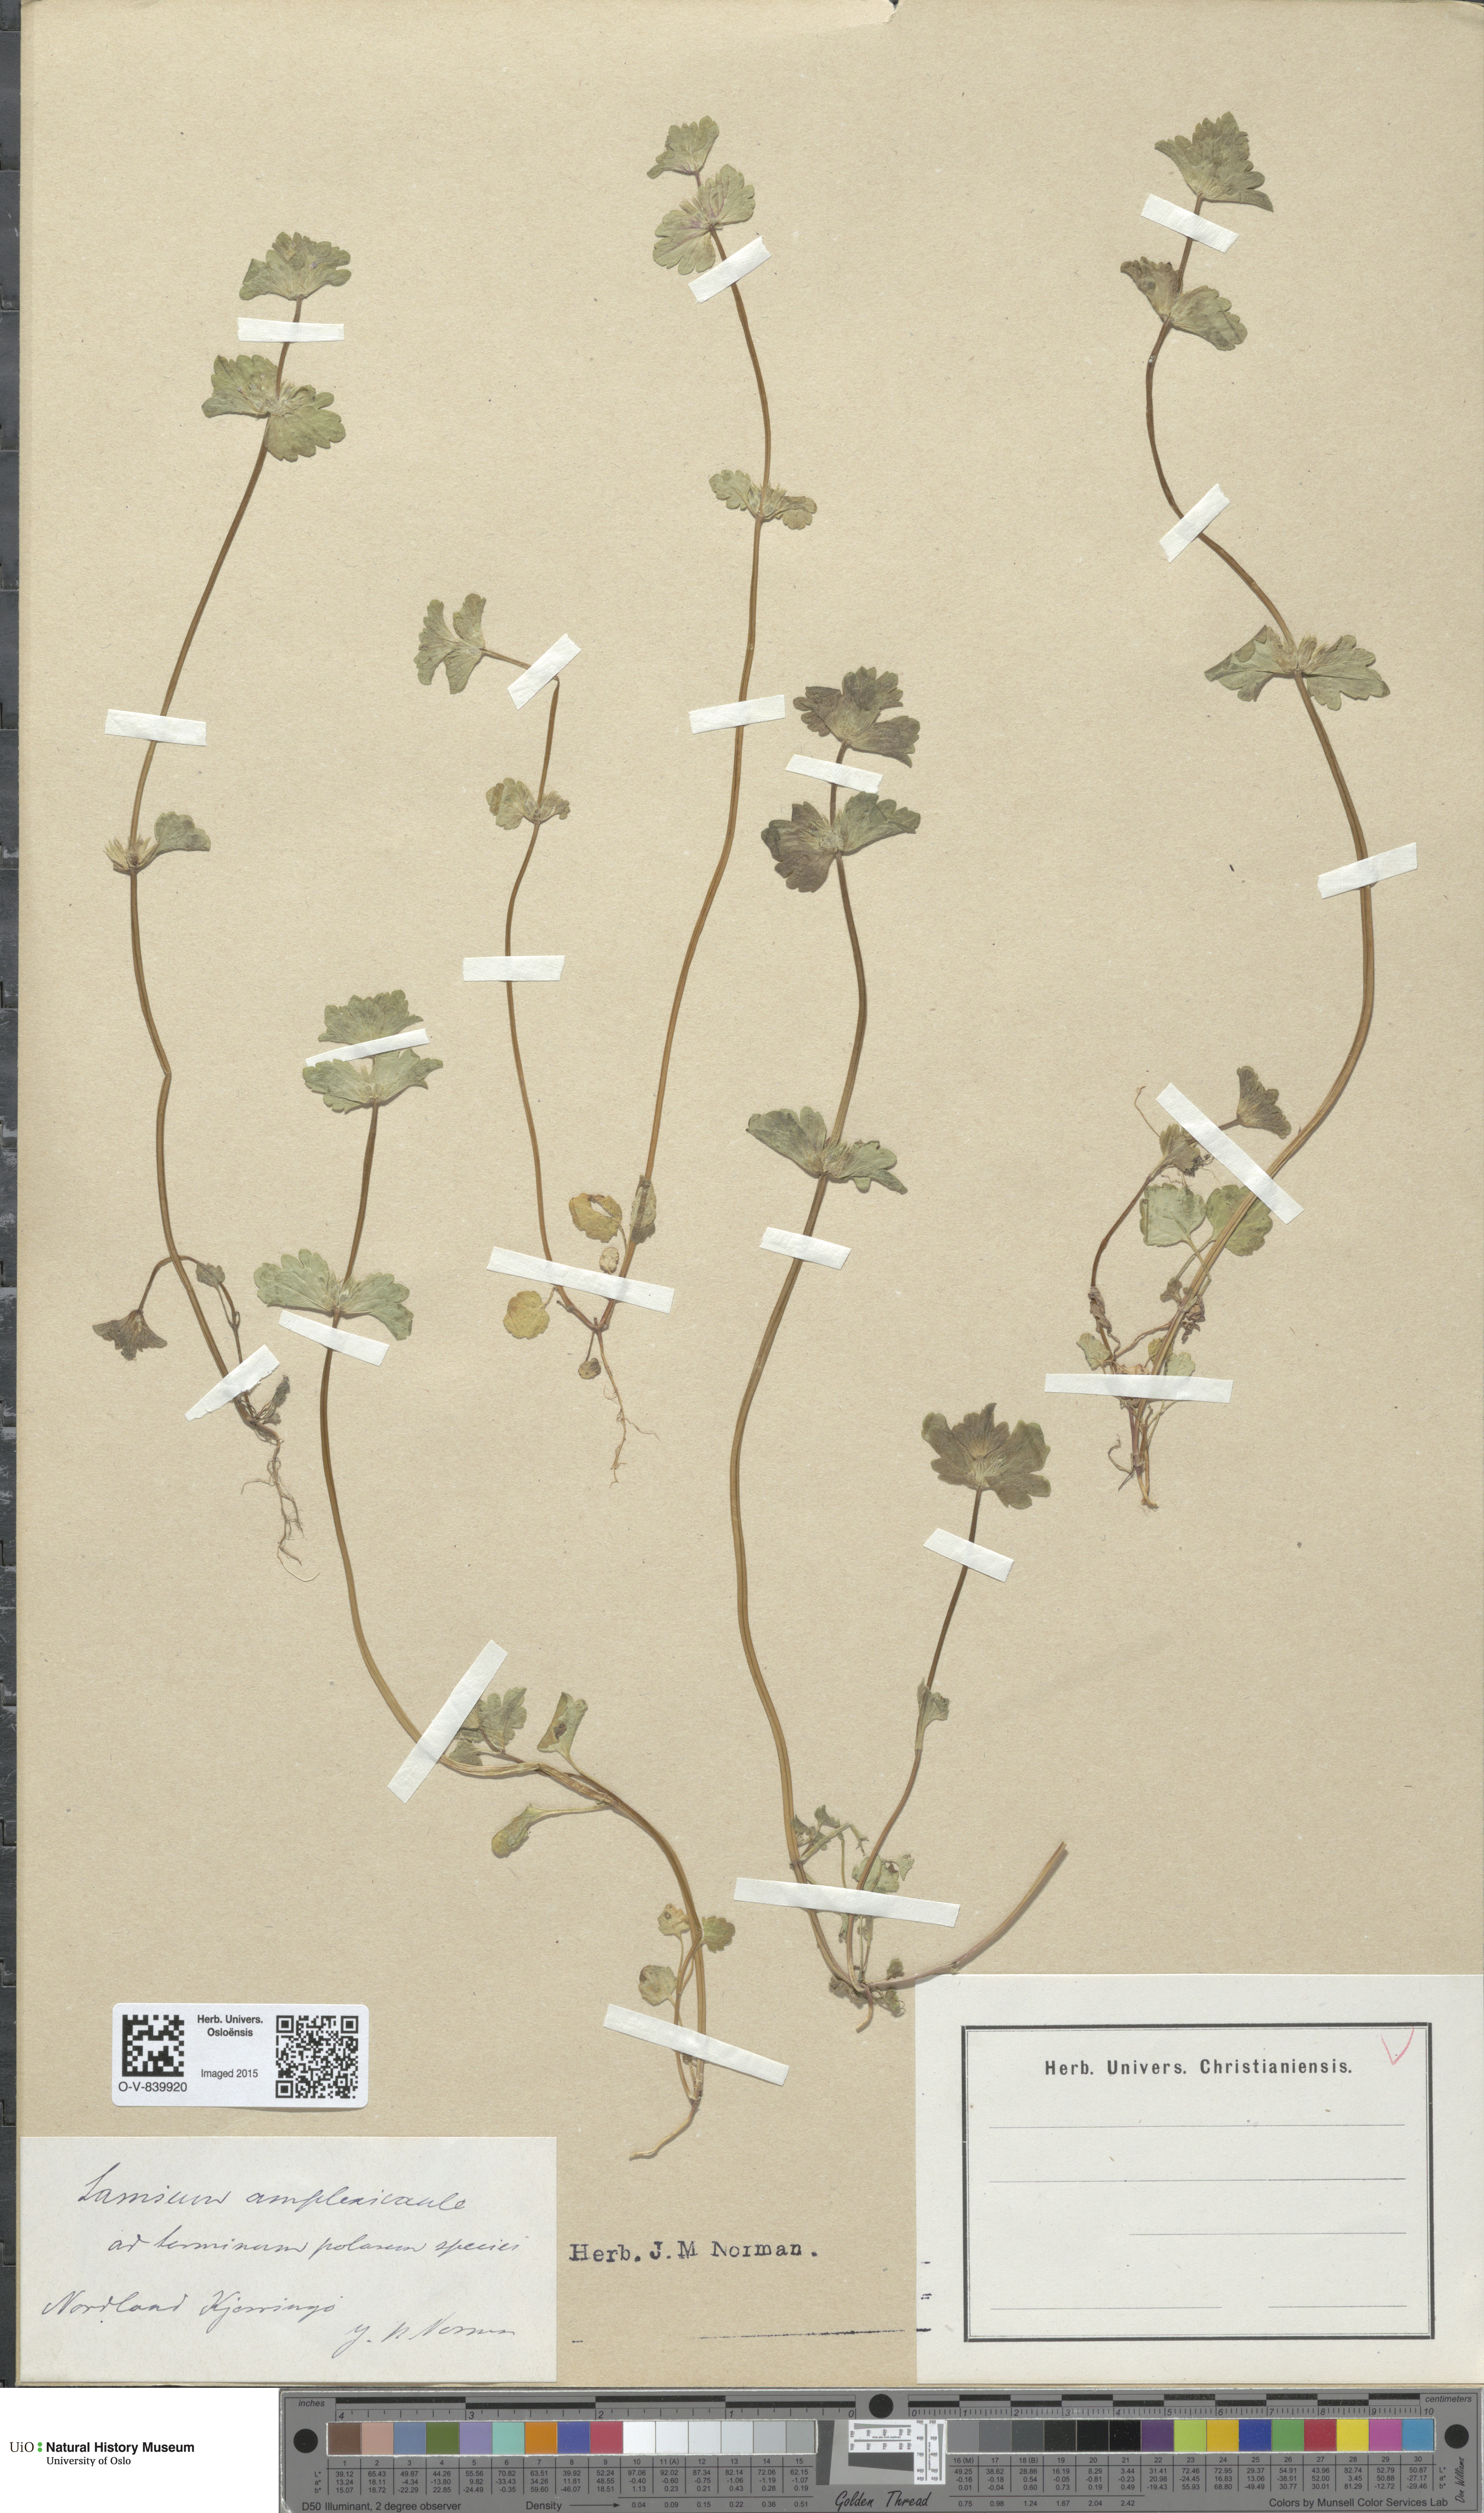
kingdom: Plantae
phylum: Tracheophyta
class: Magnoliopsida
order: Lamiales
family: Lamiaceae
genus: Lamium
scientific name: Lamium amplexicaule
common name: Henbit dead-nettle
